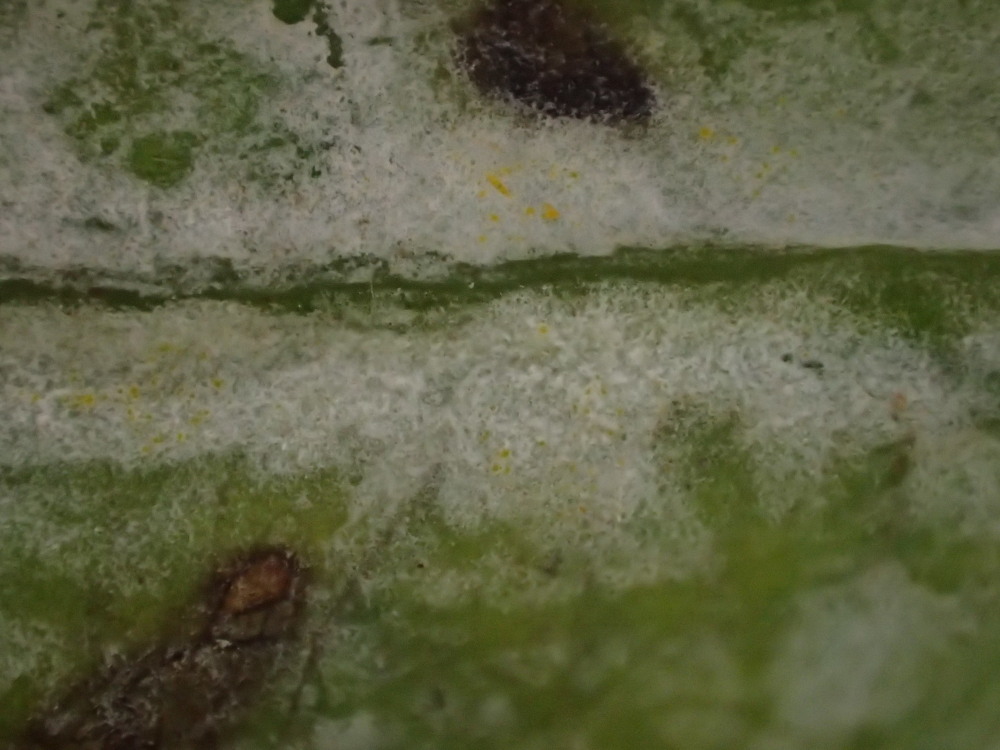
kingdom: Fungi
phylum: Ascomycota
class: Leotiomycetes
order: Helotiales
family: Erysiphaceae
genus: Erysiphe
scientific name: Erysiphe alphitoides
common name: ege-meldug
